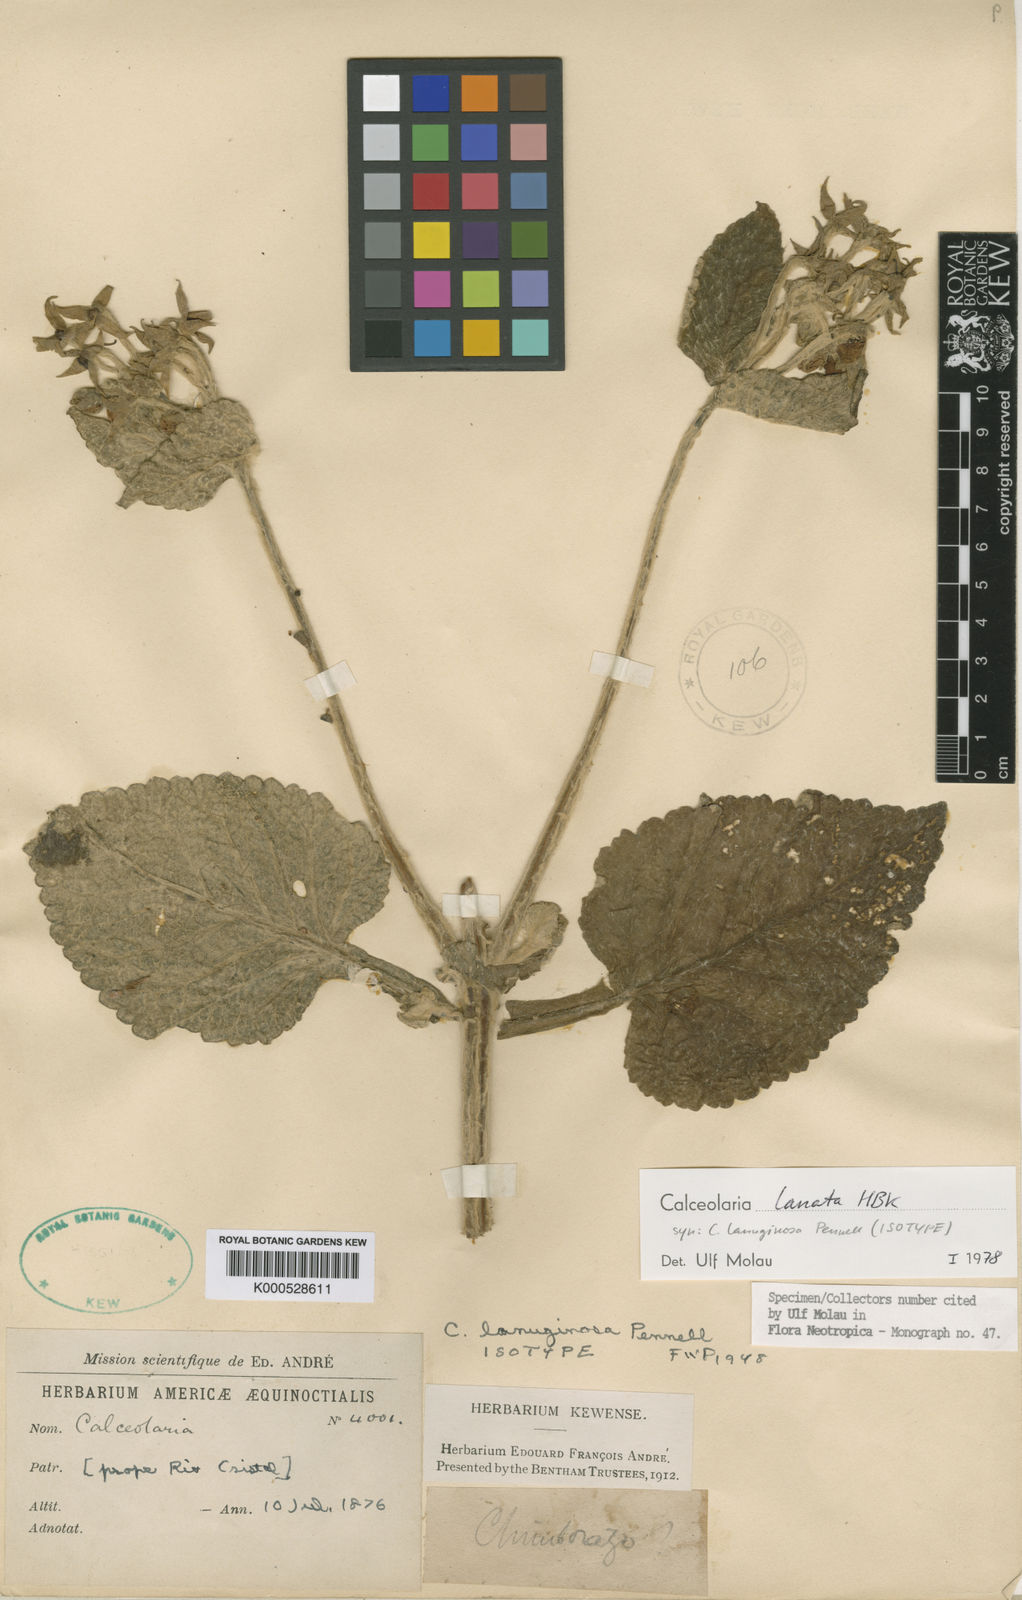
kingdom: Plantae
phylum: Tracheophyta
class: Magnoliopsida
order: Lamiales
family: Calceolariaceae
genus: Calceolaria
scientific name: Calceolaria lanata
